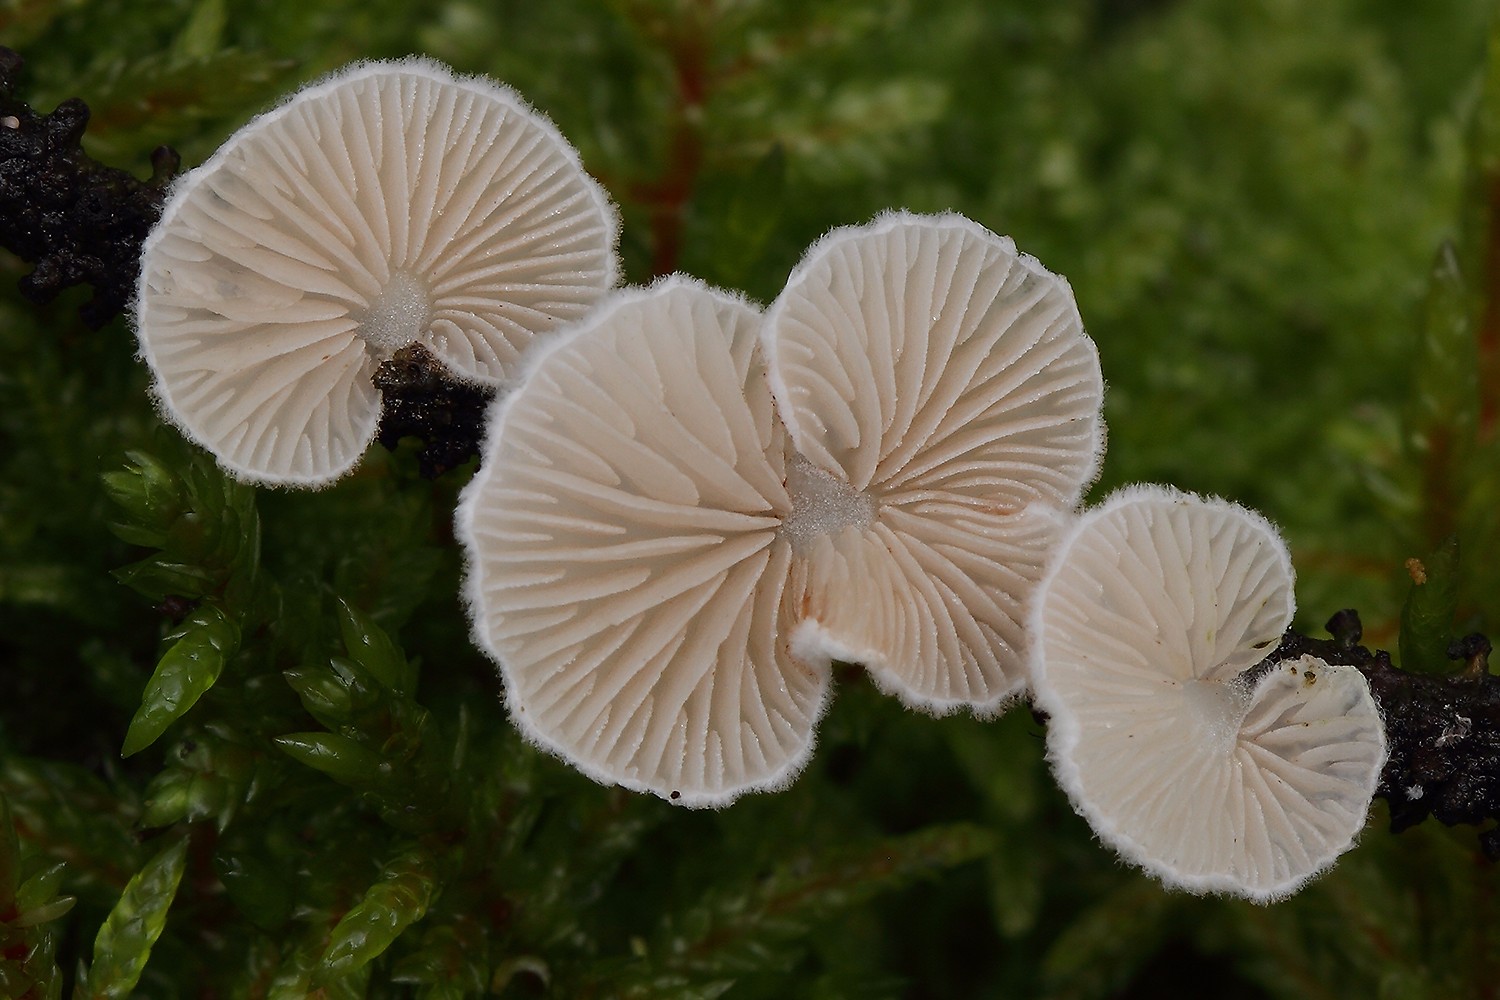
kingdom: Fungi
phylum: Basidiomycota
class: Agaricomycetes
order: Agaricales
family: Crepidotaceae
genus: Crepidotus
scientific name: Crepidotus kubickae
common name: gran-muslingesvamp
